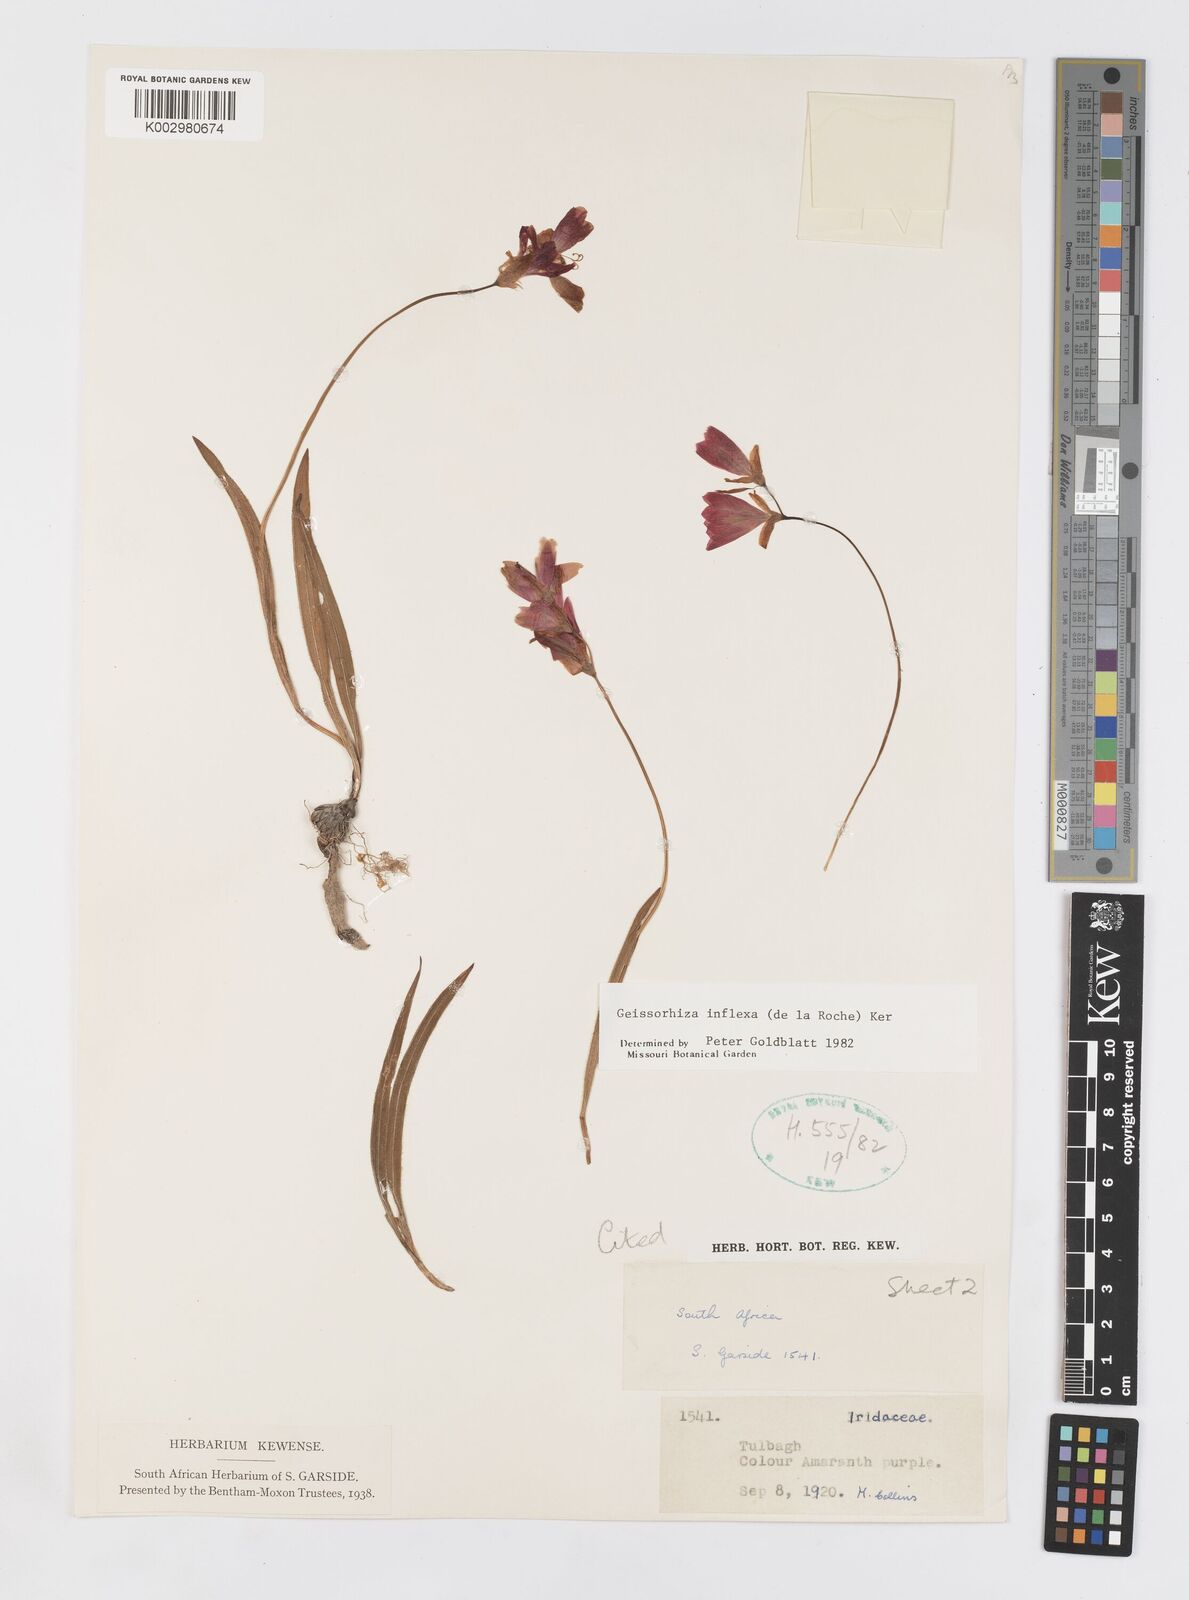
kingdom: Plantae
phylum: Tracheophyta
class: Liliopsida
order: Asparagales
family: Iridaceae
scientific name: Iridaceae
